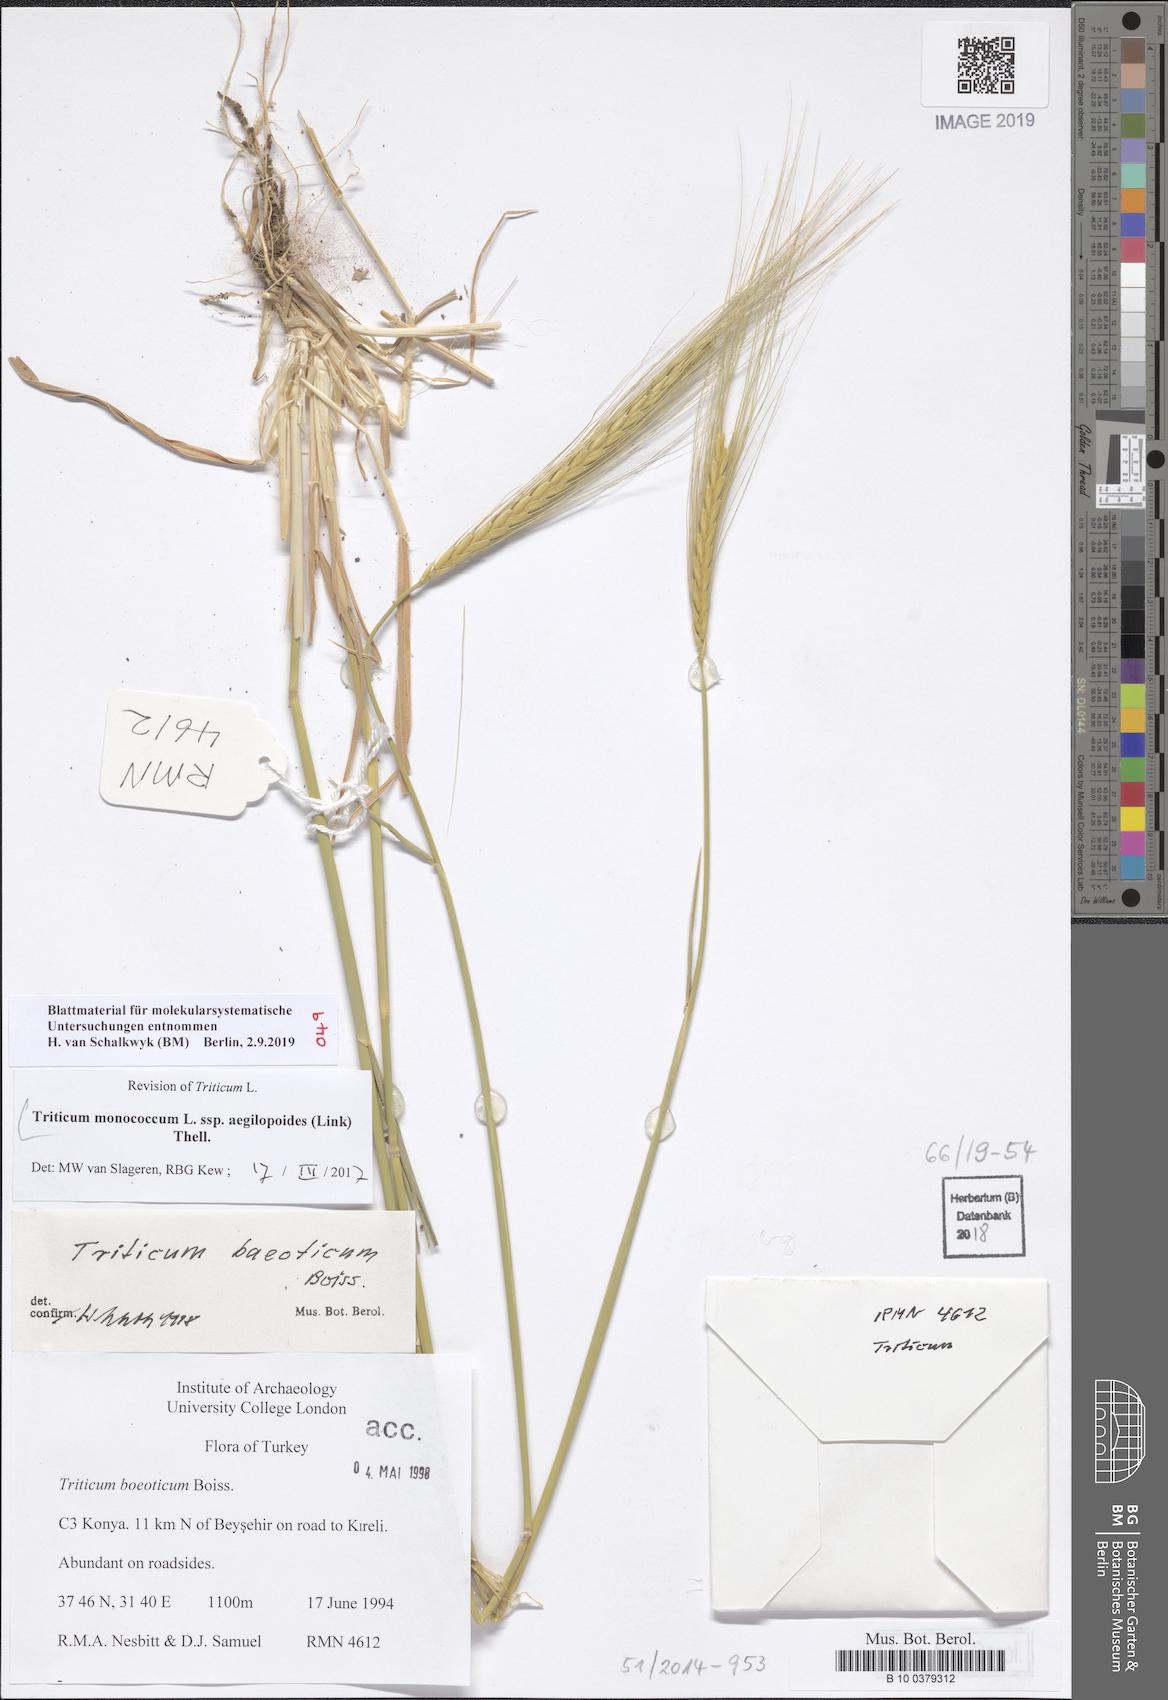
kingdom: Plantae
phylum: Tracheophyta
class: Liliopsida
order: Poales
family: Poaceae
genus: Triticum
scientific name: Triticum monococcum
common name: Einkorn
